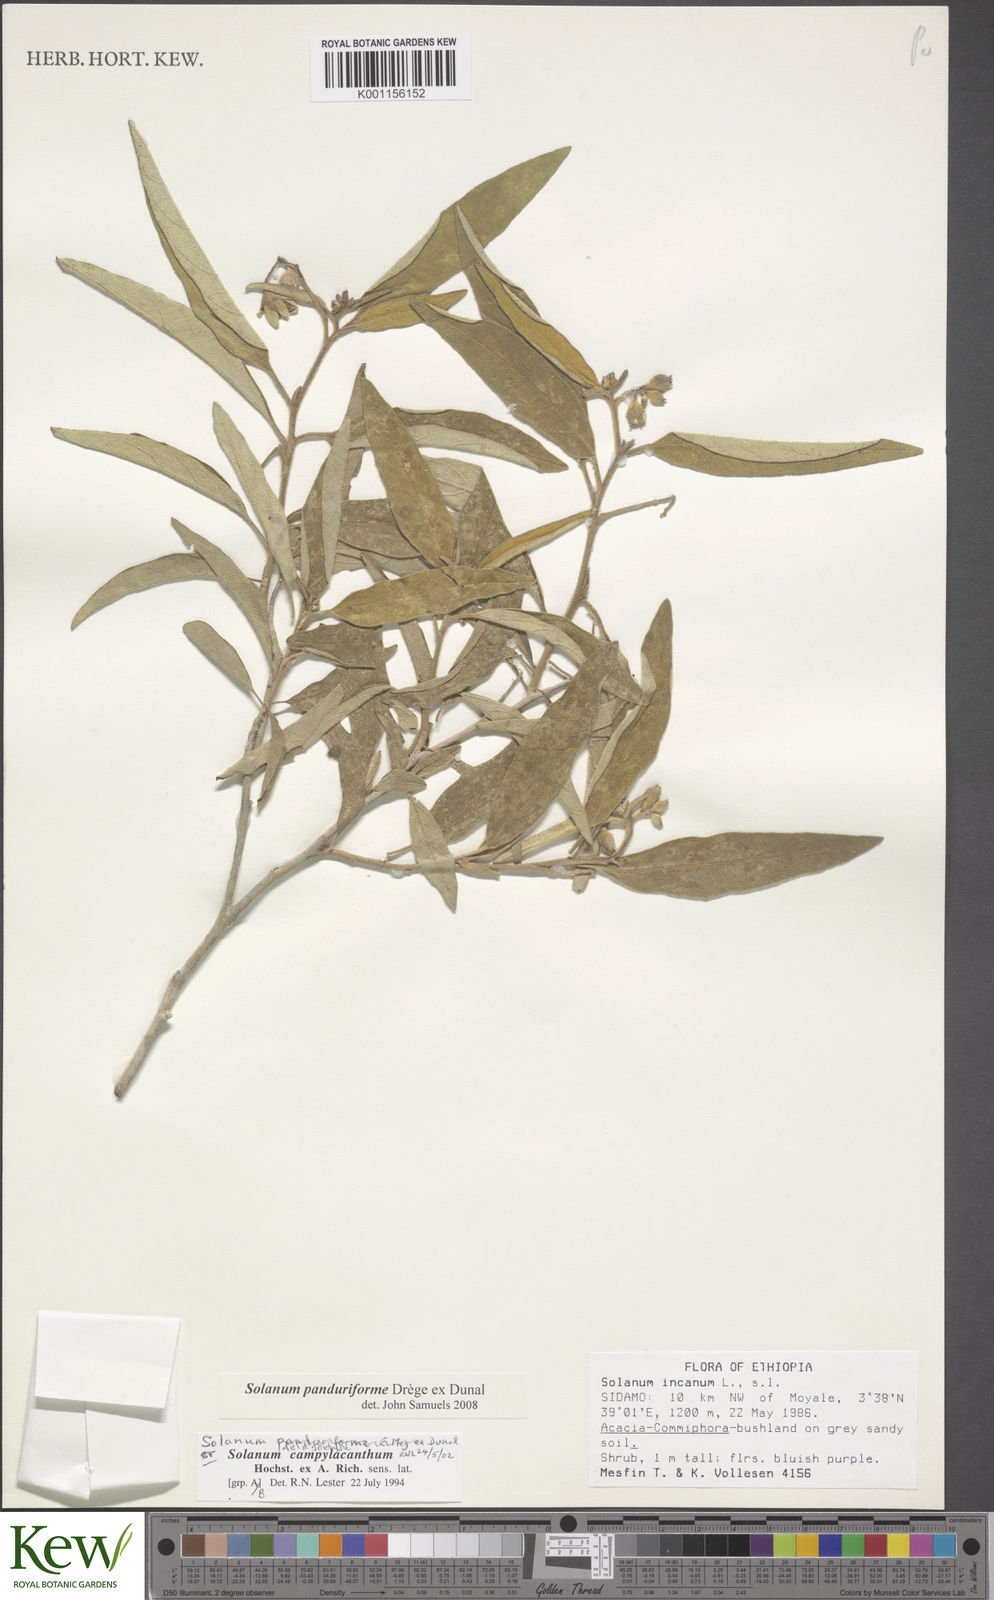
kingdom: Plantae
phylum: Tracheophyta
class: Magnoliopsida
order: Solanales
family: Solanaceae
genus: Solanum
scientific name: Solanum campylacanthum
